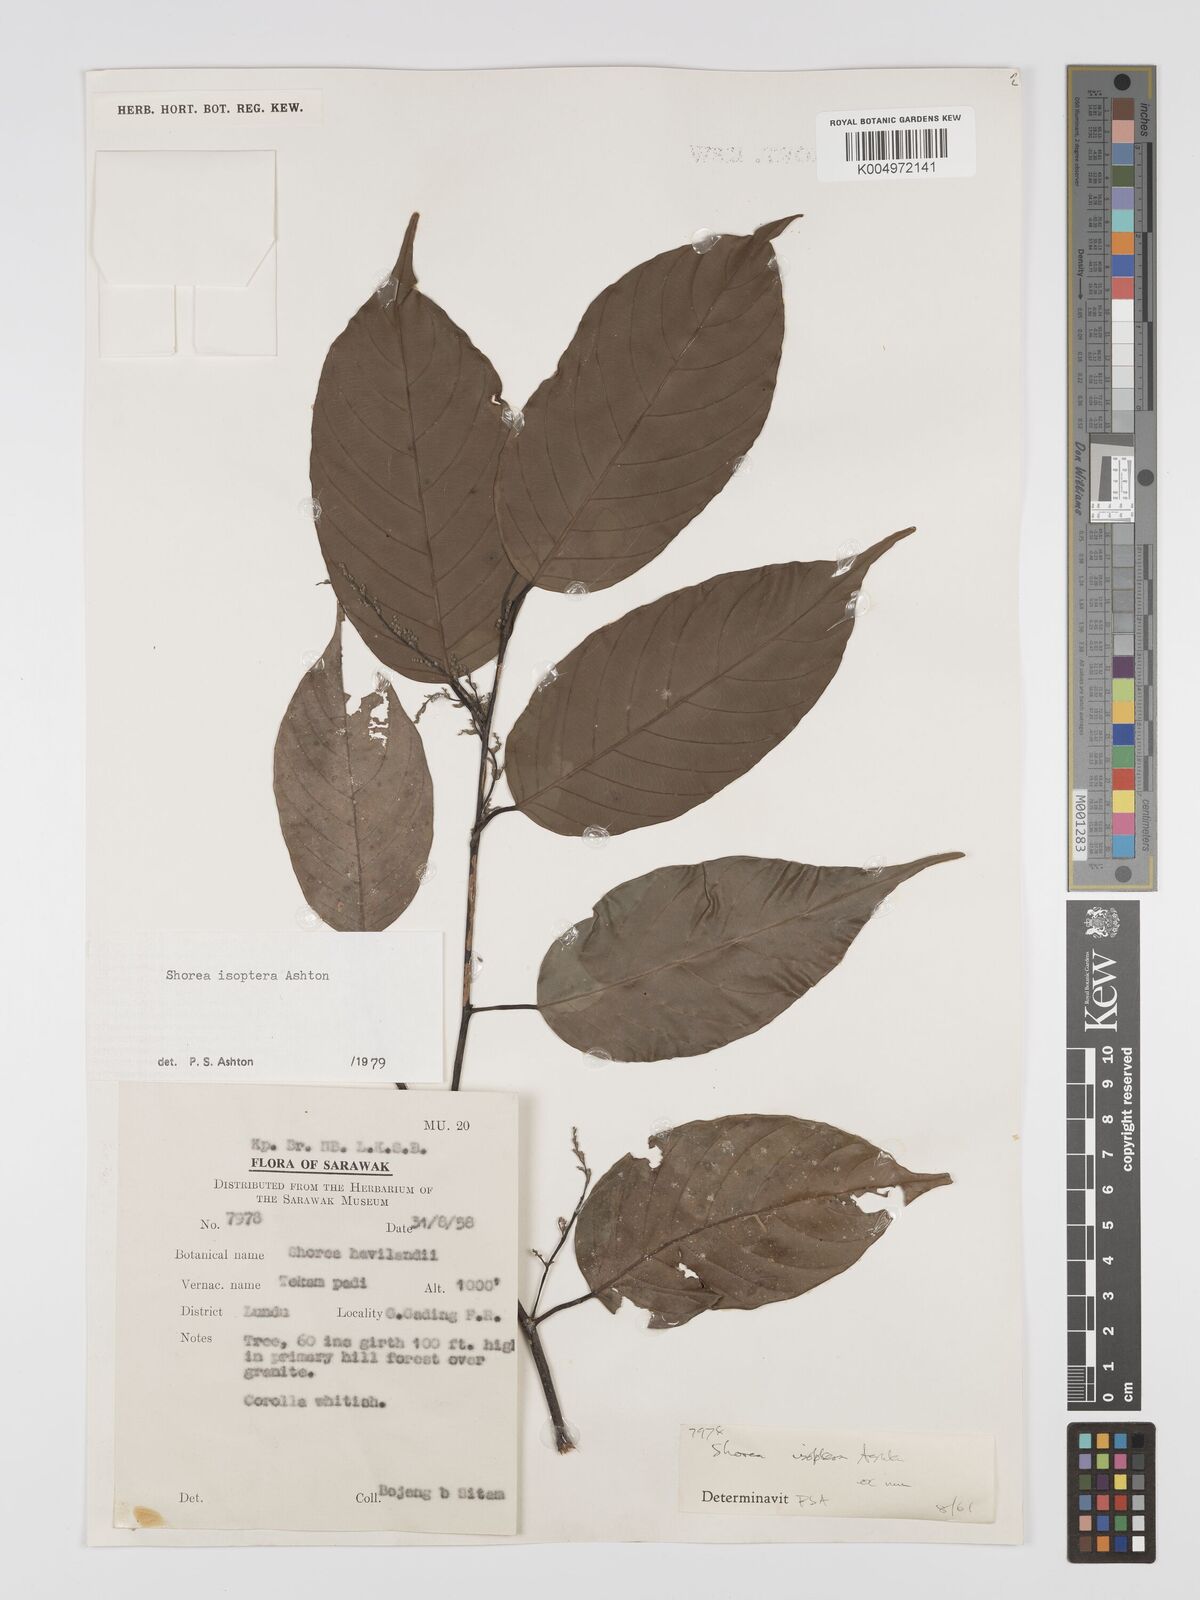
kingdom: Plantae
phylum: Tracheophyta
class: Magnoliopsida
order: Malvales
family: Dipterocarpaceae
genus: Neohopea
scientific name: Neohopea isoptera
